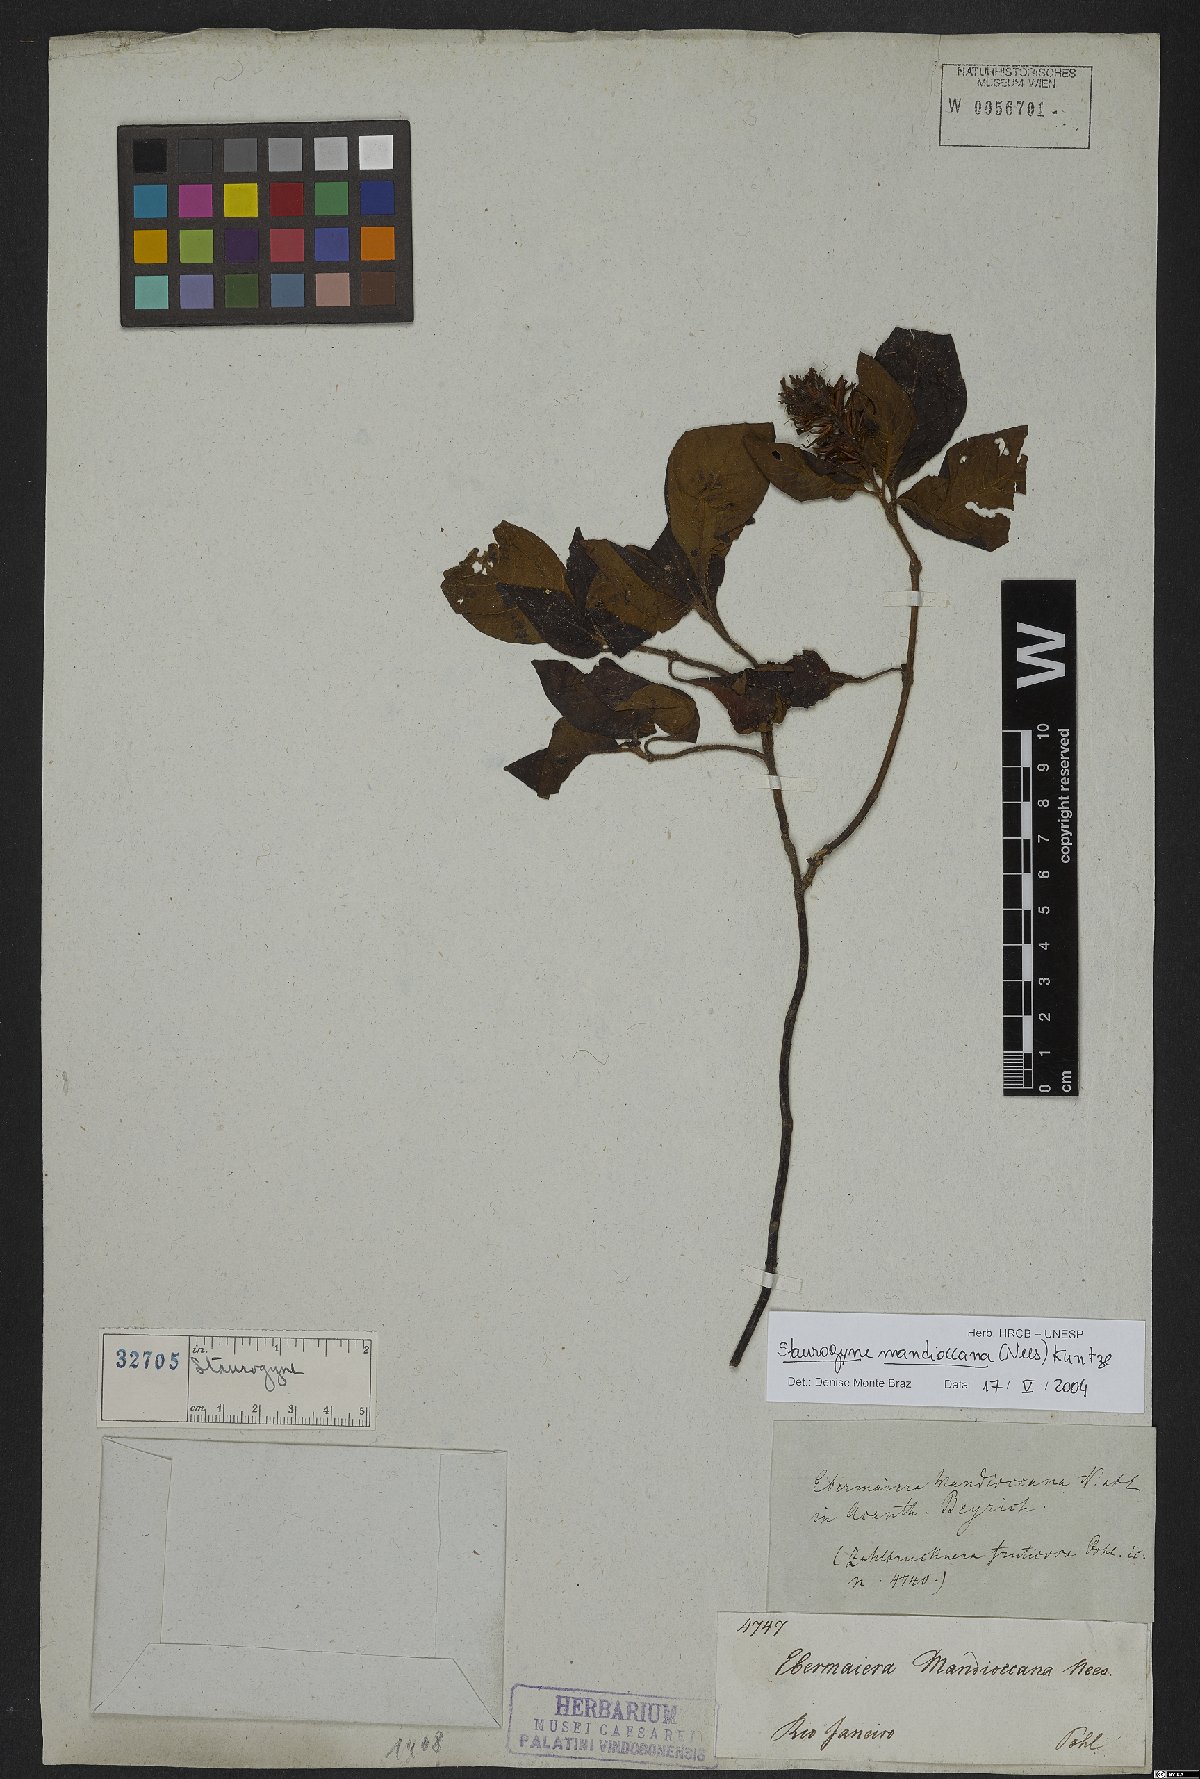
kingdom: Plantae
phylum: Tracheophyta
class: Magnoliopsida
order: Lamiales
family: Acanthaceae
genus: Staurogyne
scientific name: Staurogyne mandioccana
